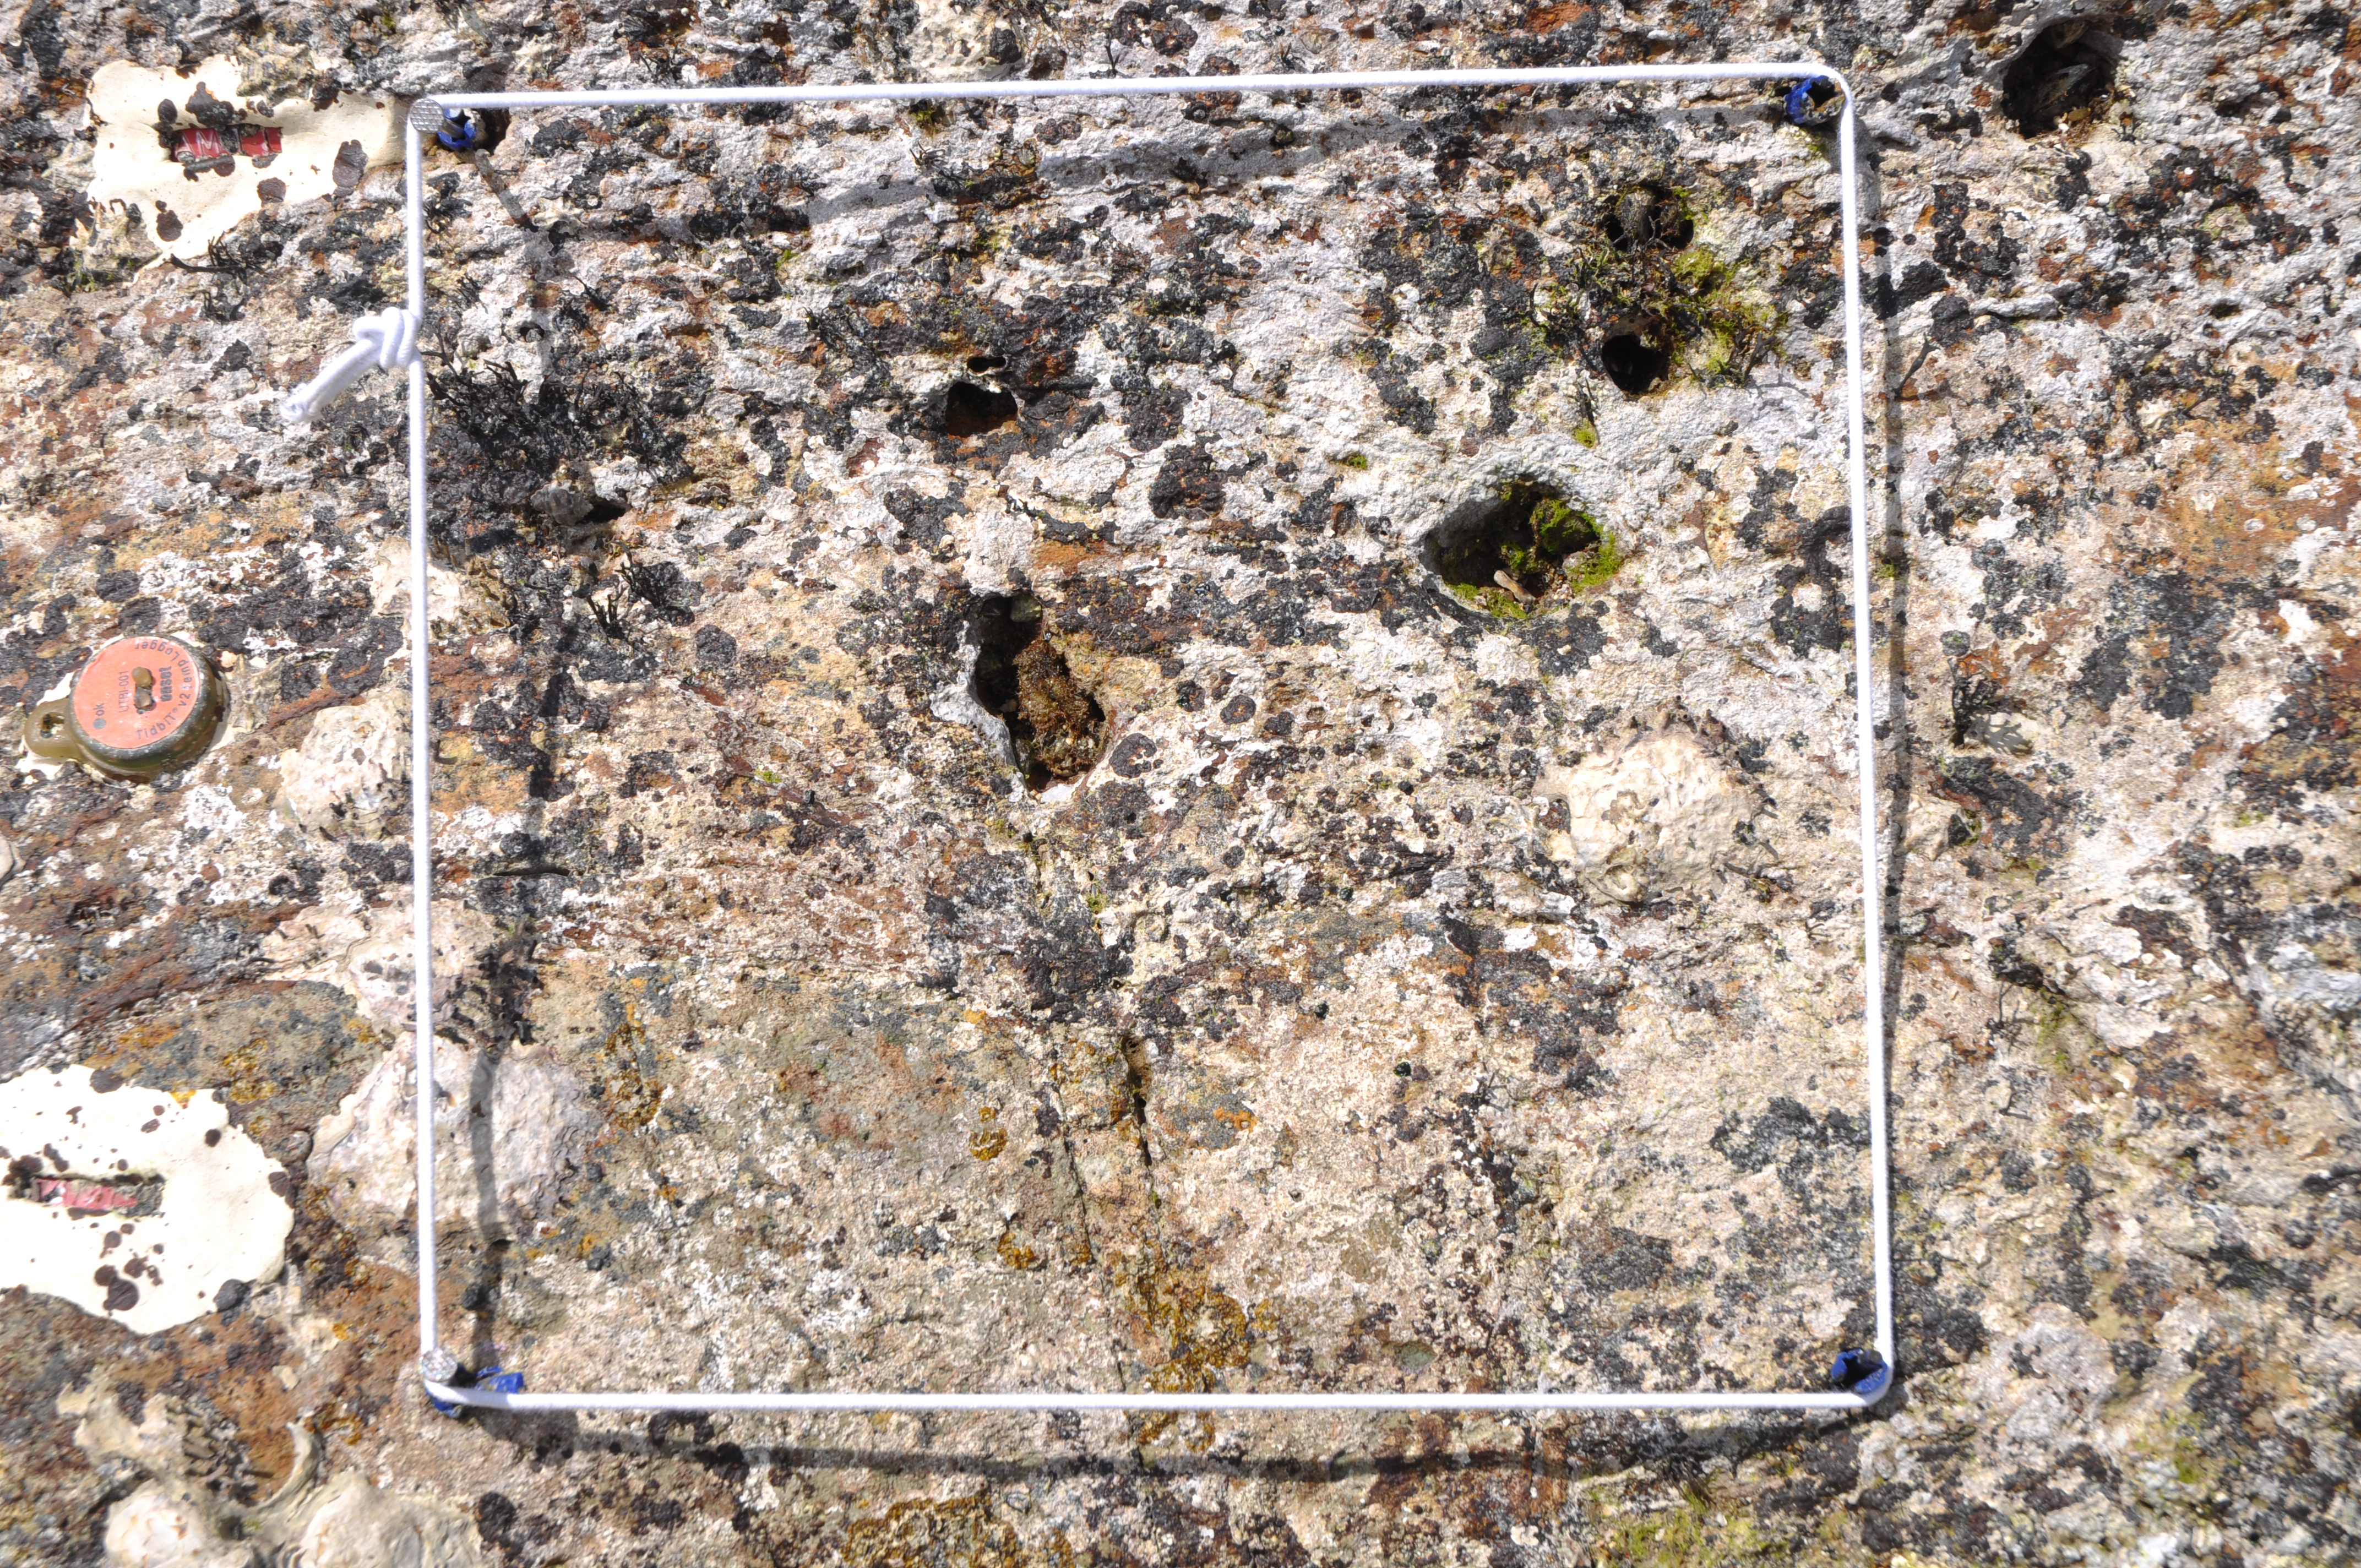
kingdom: Chromista
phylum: Ochrophyta
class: Phaeophyceae
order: Ishigeales
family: Ishigeaceae
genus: Ishige
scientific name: Ishige okamurae
